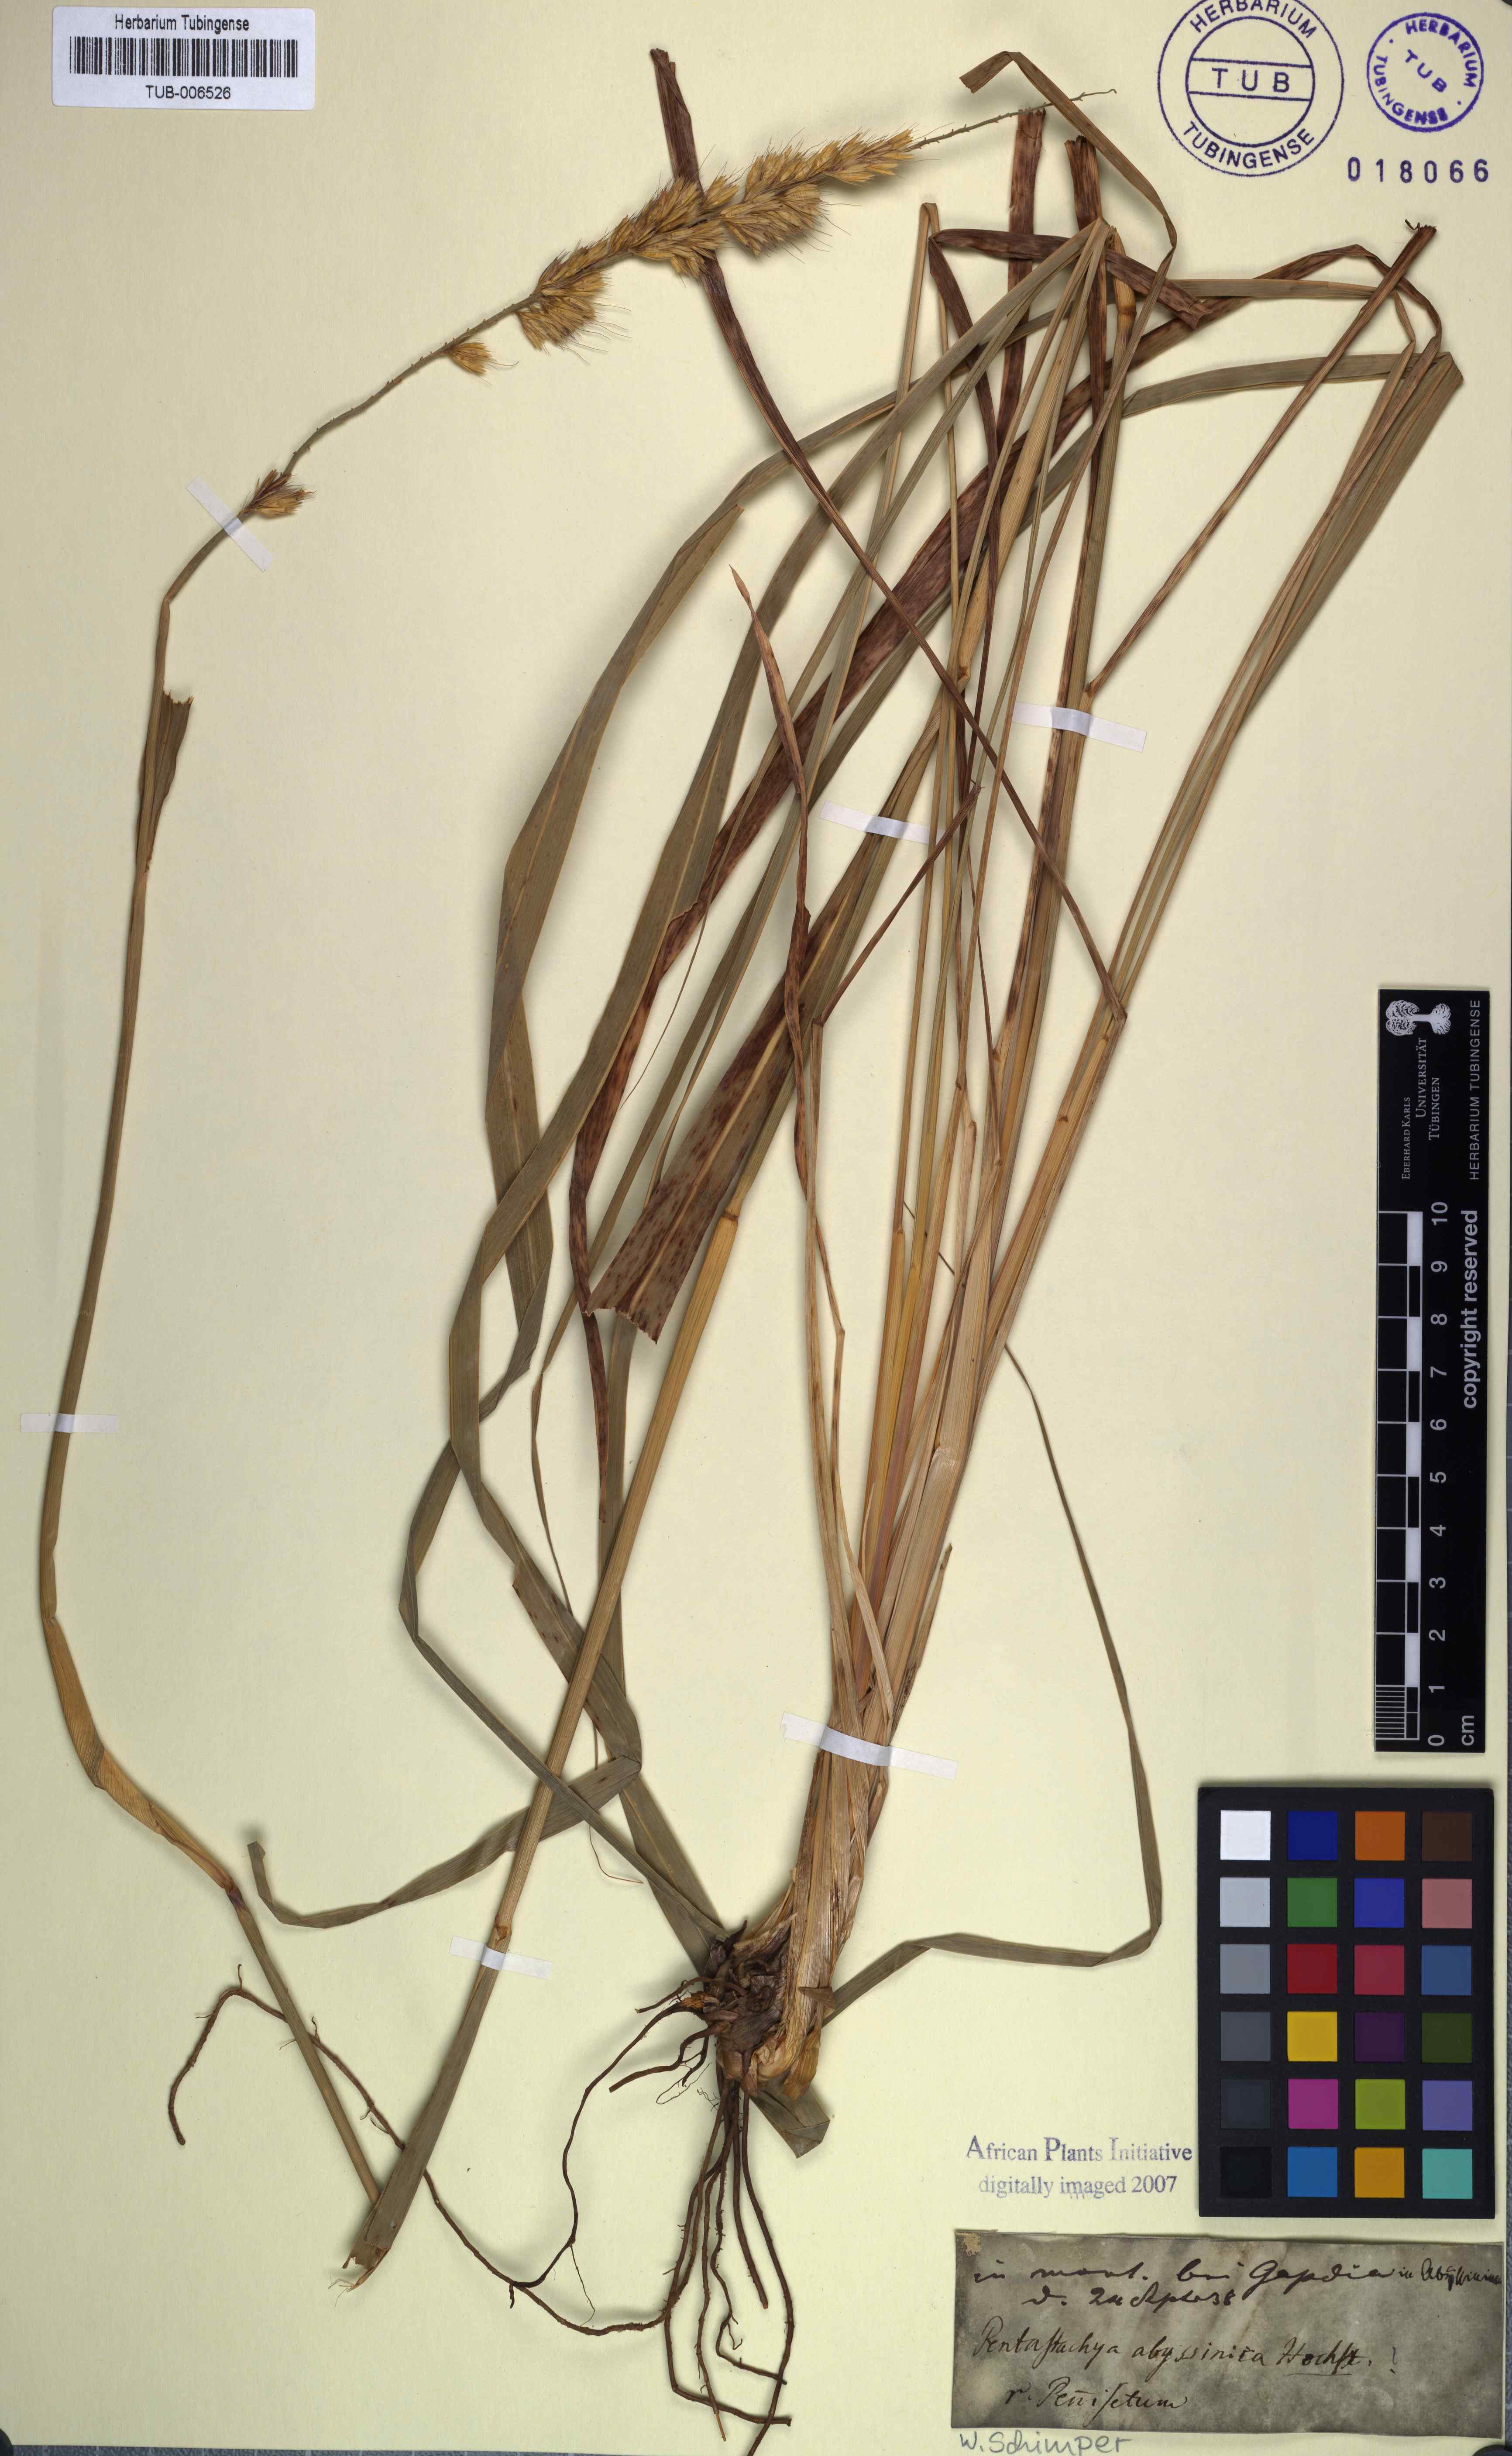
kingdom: Plantae
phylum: Tracheophyta
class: Liliopsida
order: Poales
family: Poaceae
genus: Cenchrus
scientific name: Cenchrus squamulatus
